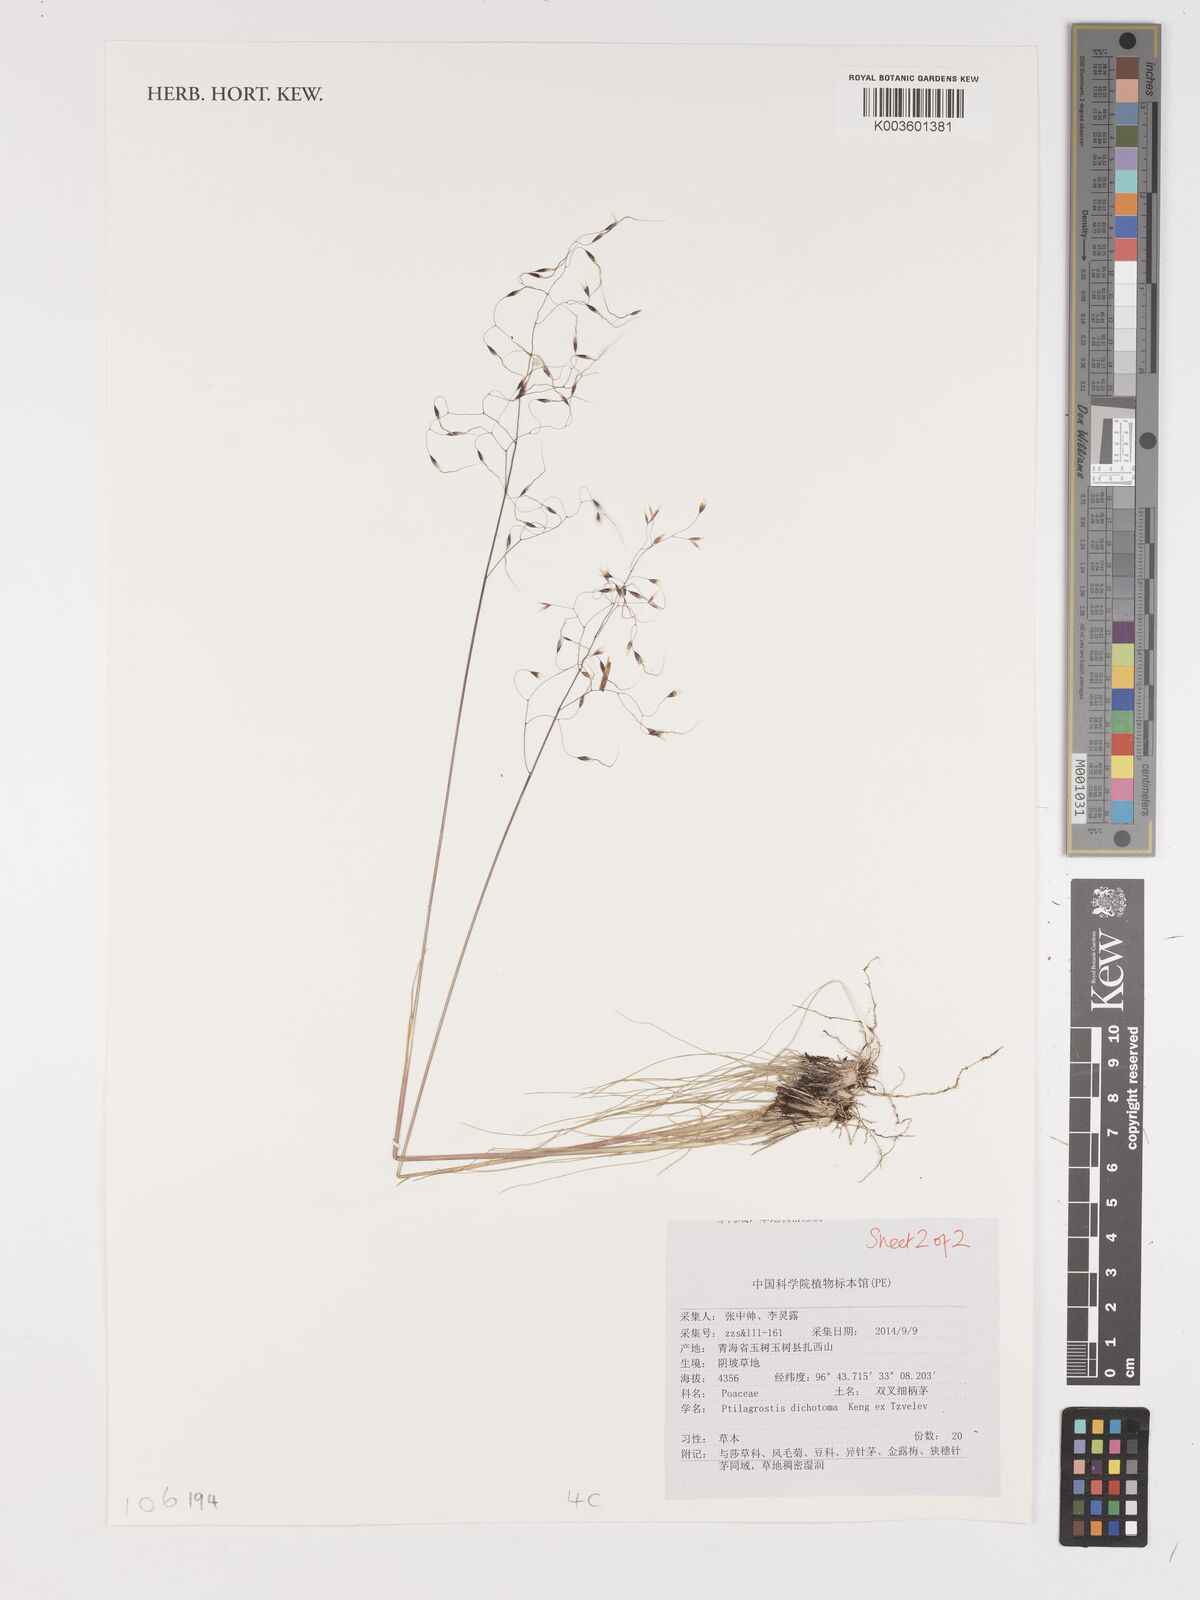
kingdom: Plantae
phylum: Tracheophyta
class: Liliopsida
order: Poales
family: Poaceae
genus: Stipa
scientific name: Stipa
